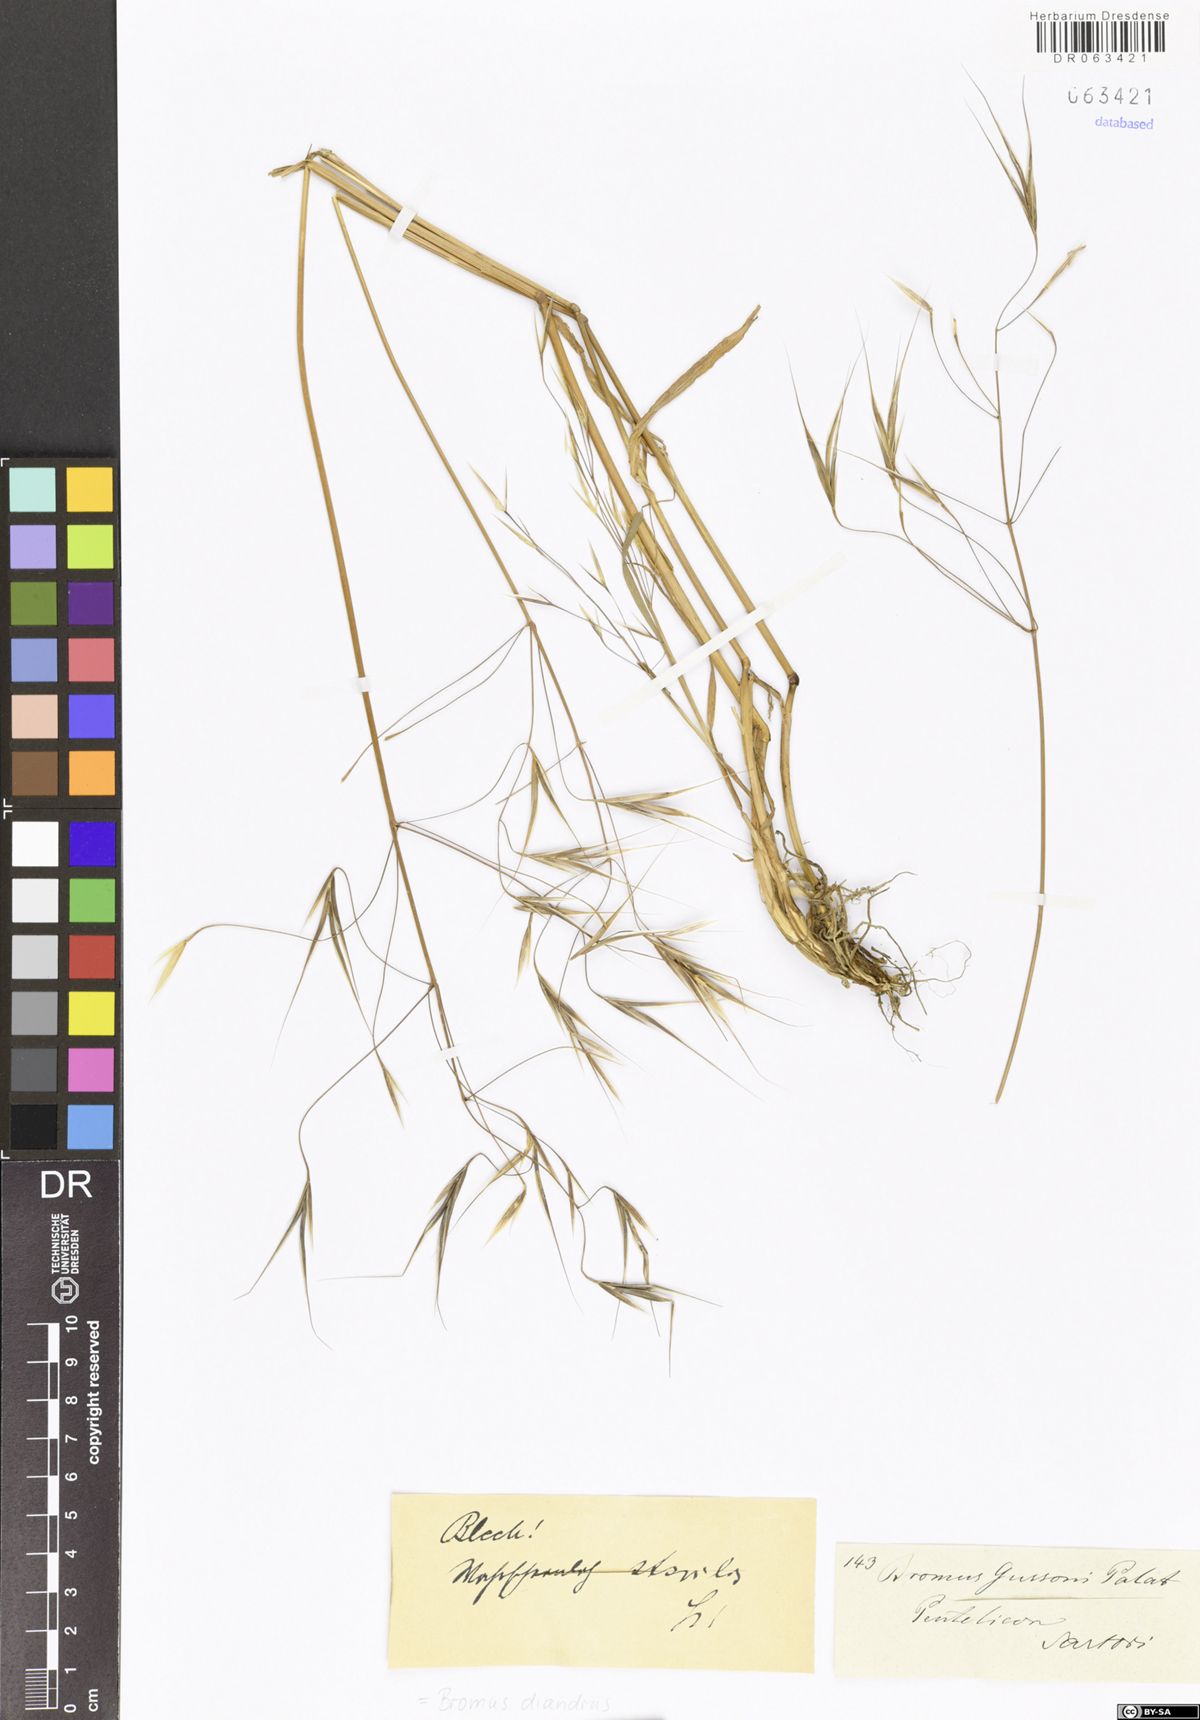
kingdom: Plantae
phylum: Tracheophyta
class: Liliopsida
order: Poales
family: Poaceae
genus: Bromus
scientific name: Bromus diandrus
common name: Ripgut brome
